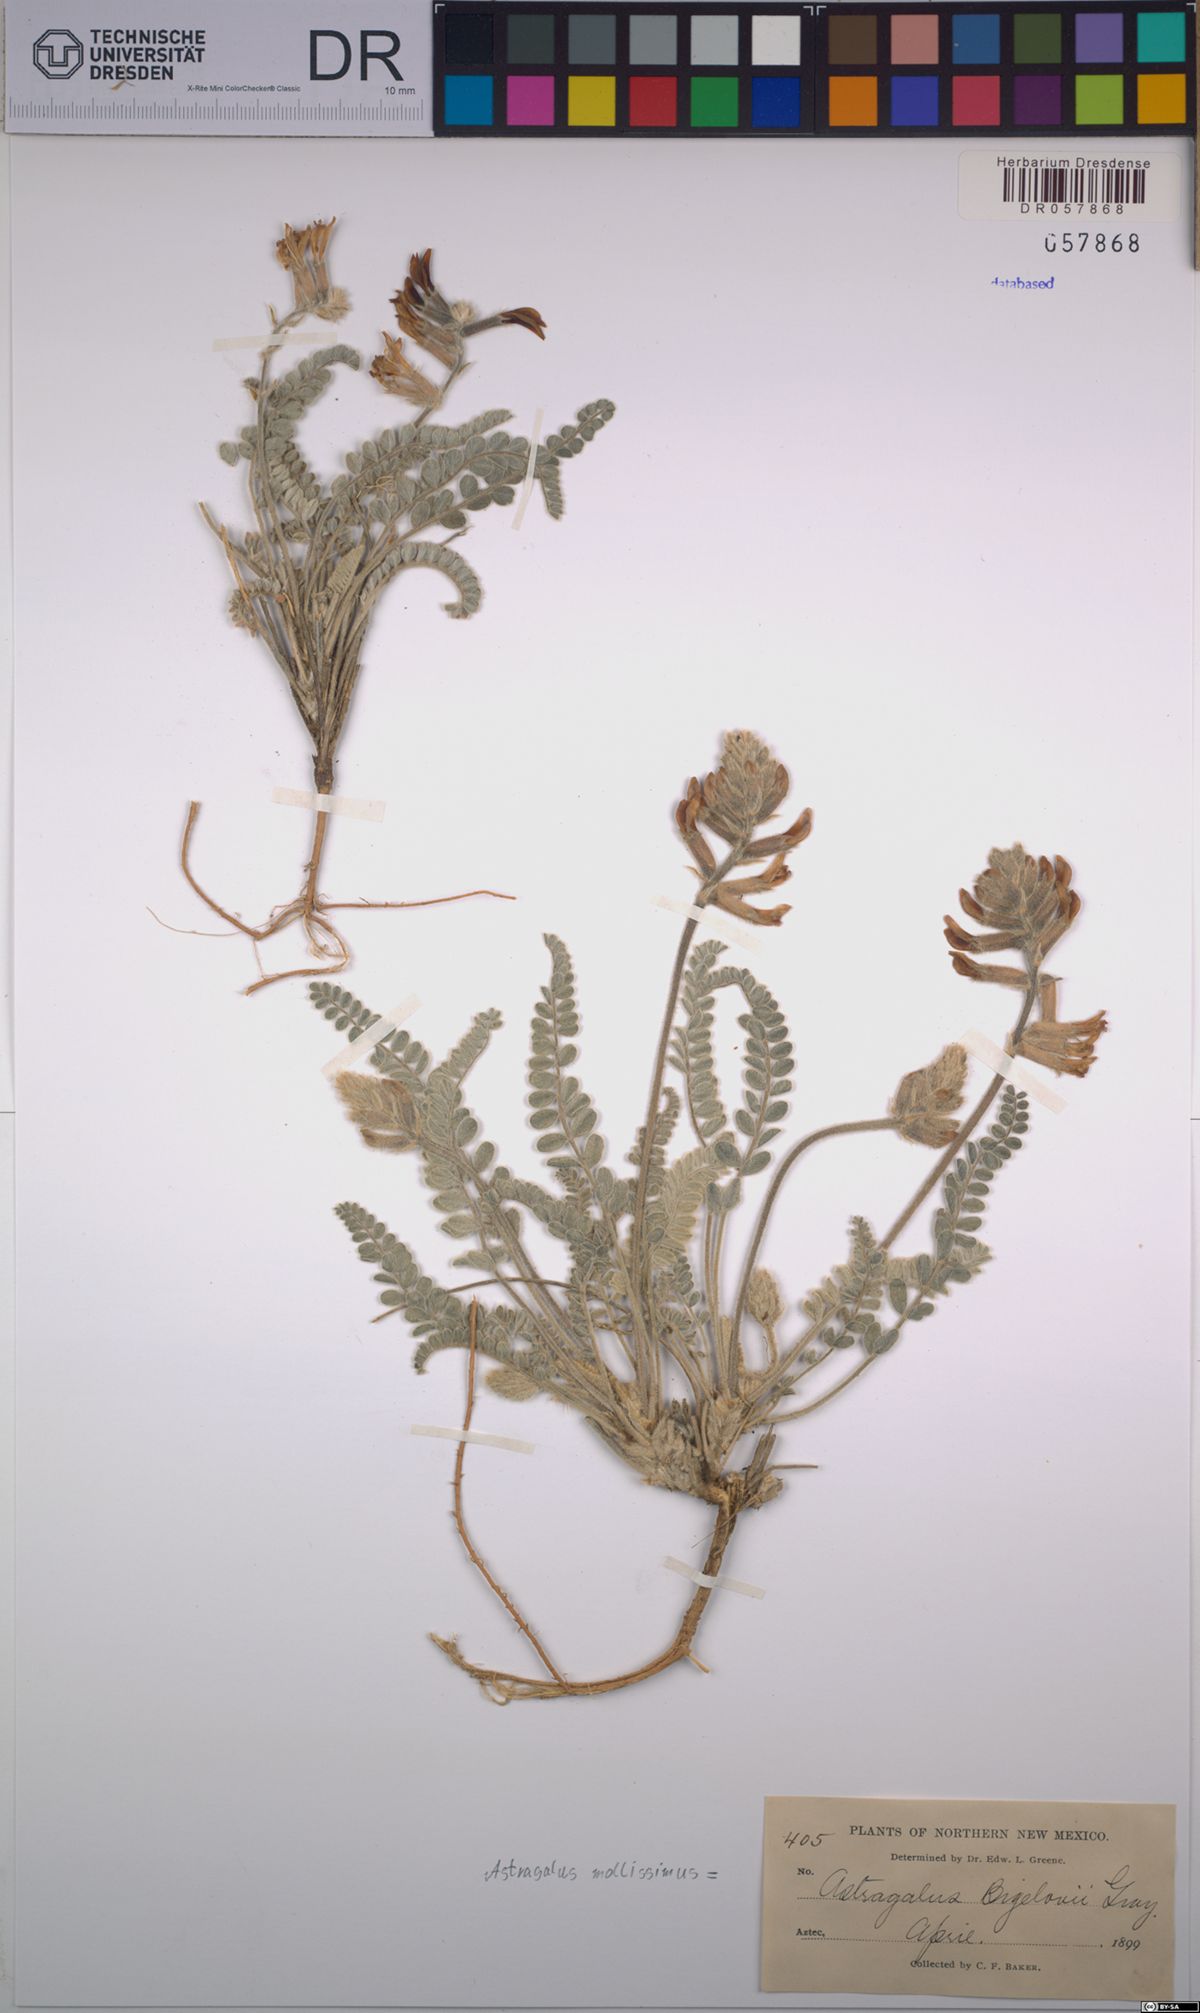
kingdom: Plantae
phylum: Tracheophyta
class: Magnoliopsida
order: Fabales
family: Fabaceae
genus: Astragalus
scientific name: Astragalus mollissimus
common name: Woolly locoweed
